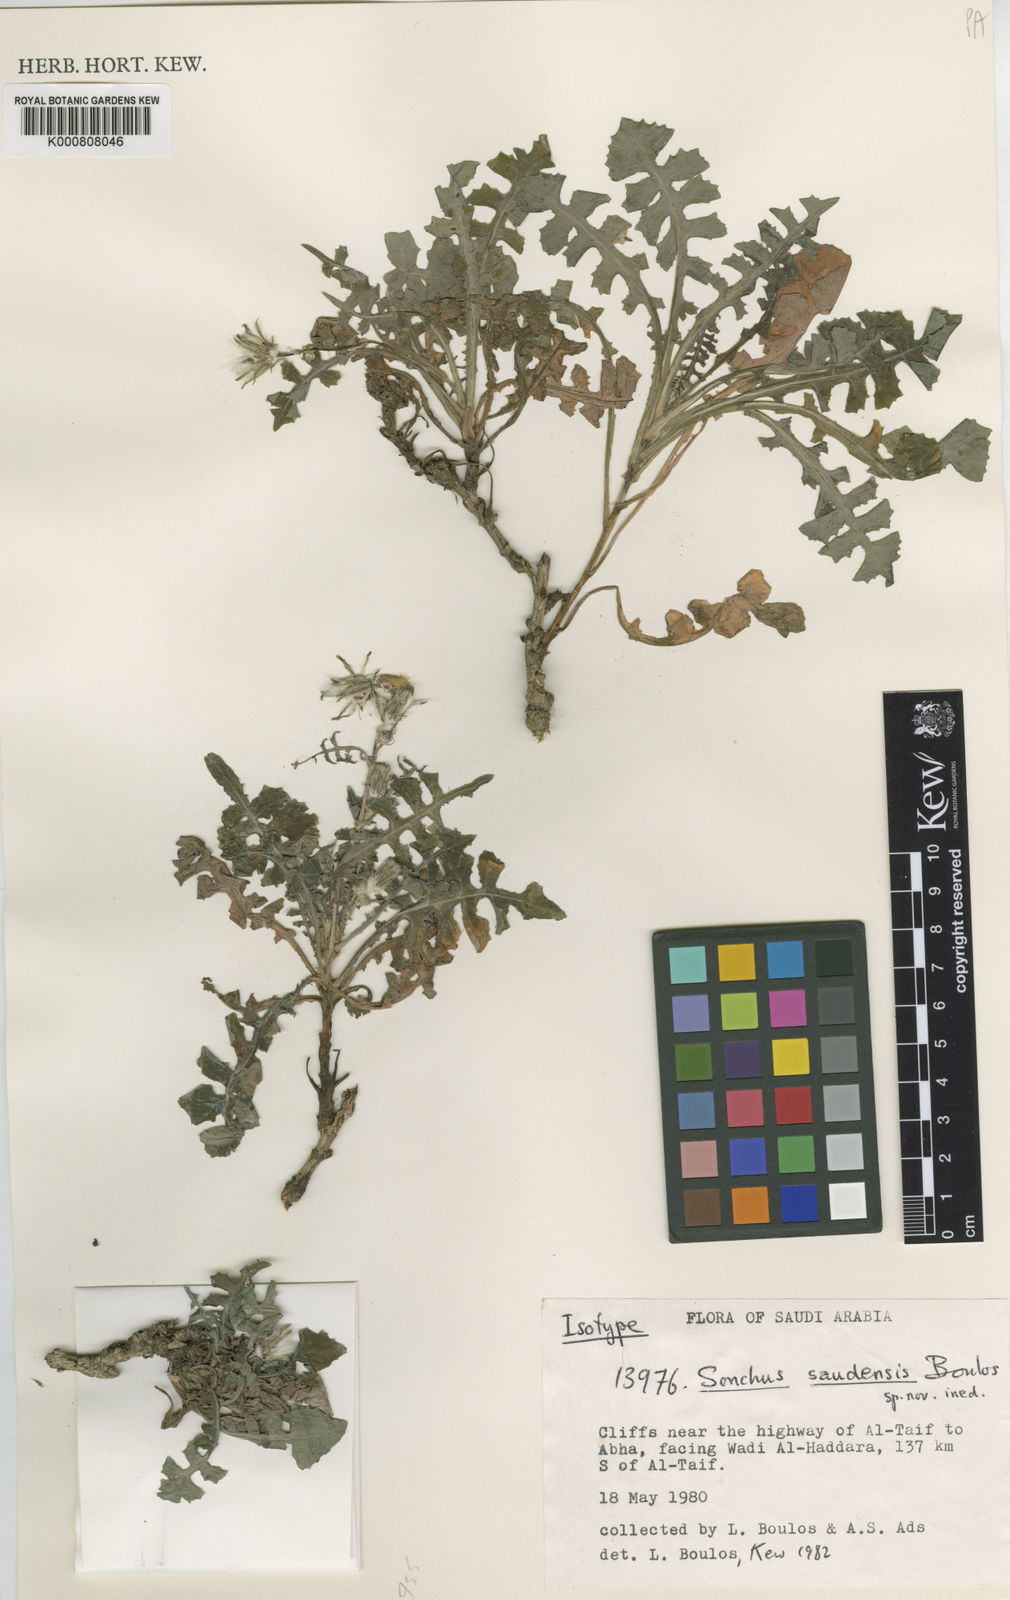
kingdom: Plantae
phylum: Tracheophyta
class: Magnoliopsida
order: Asterales
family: Asteraceae
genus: Sonchus
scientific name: Sonchus saudensis
